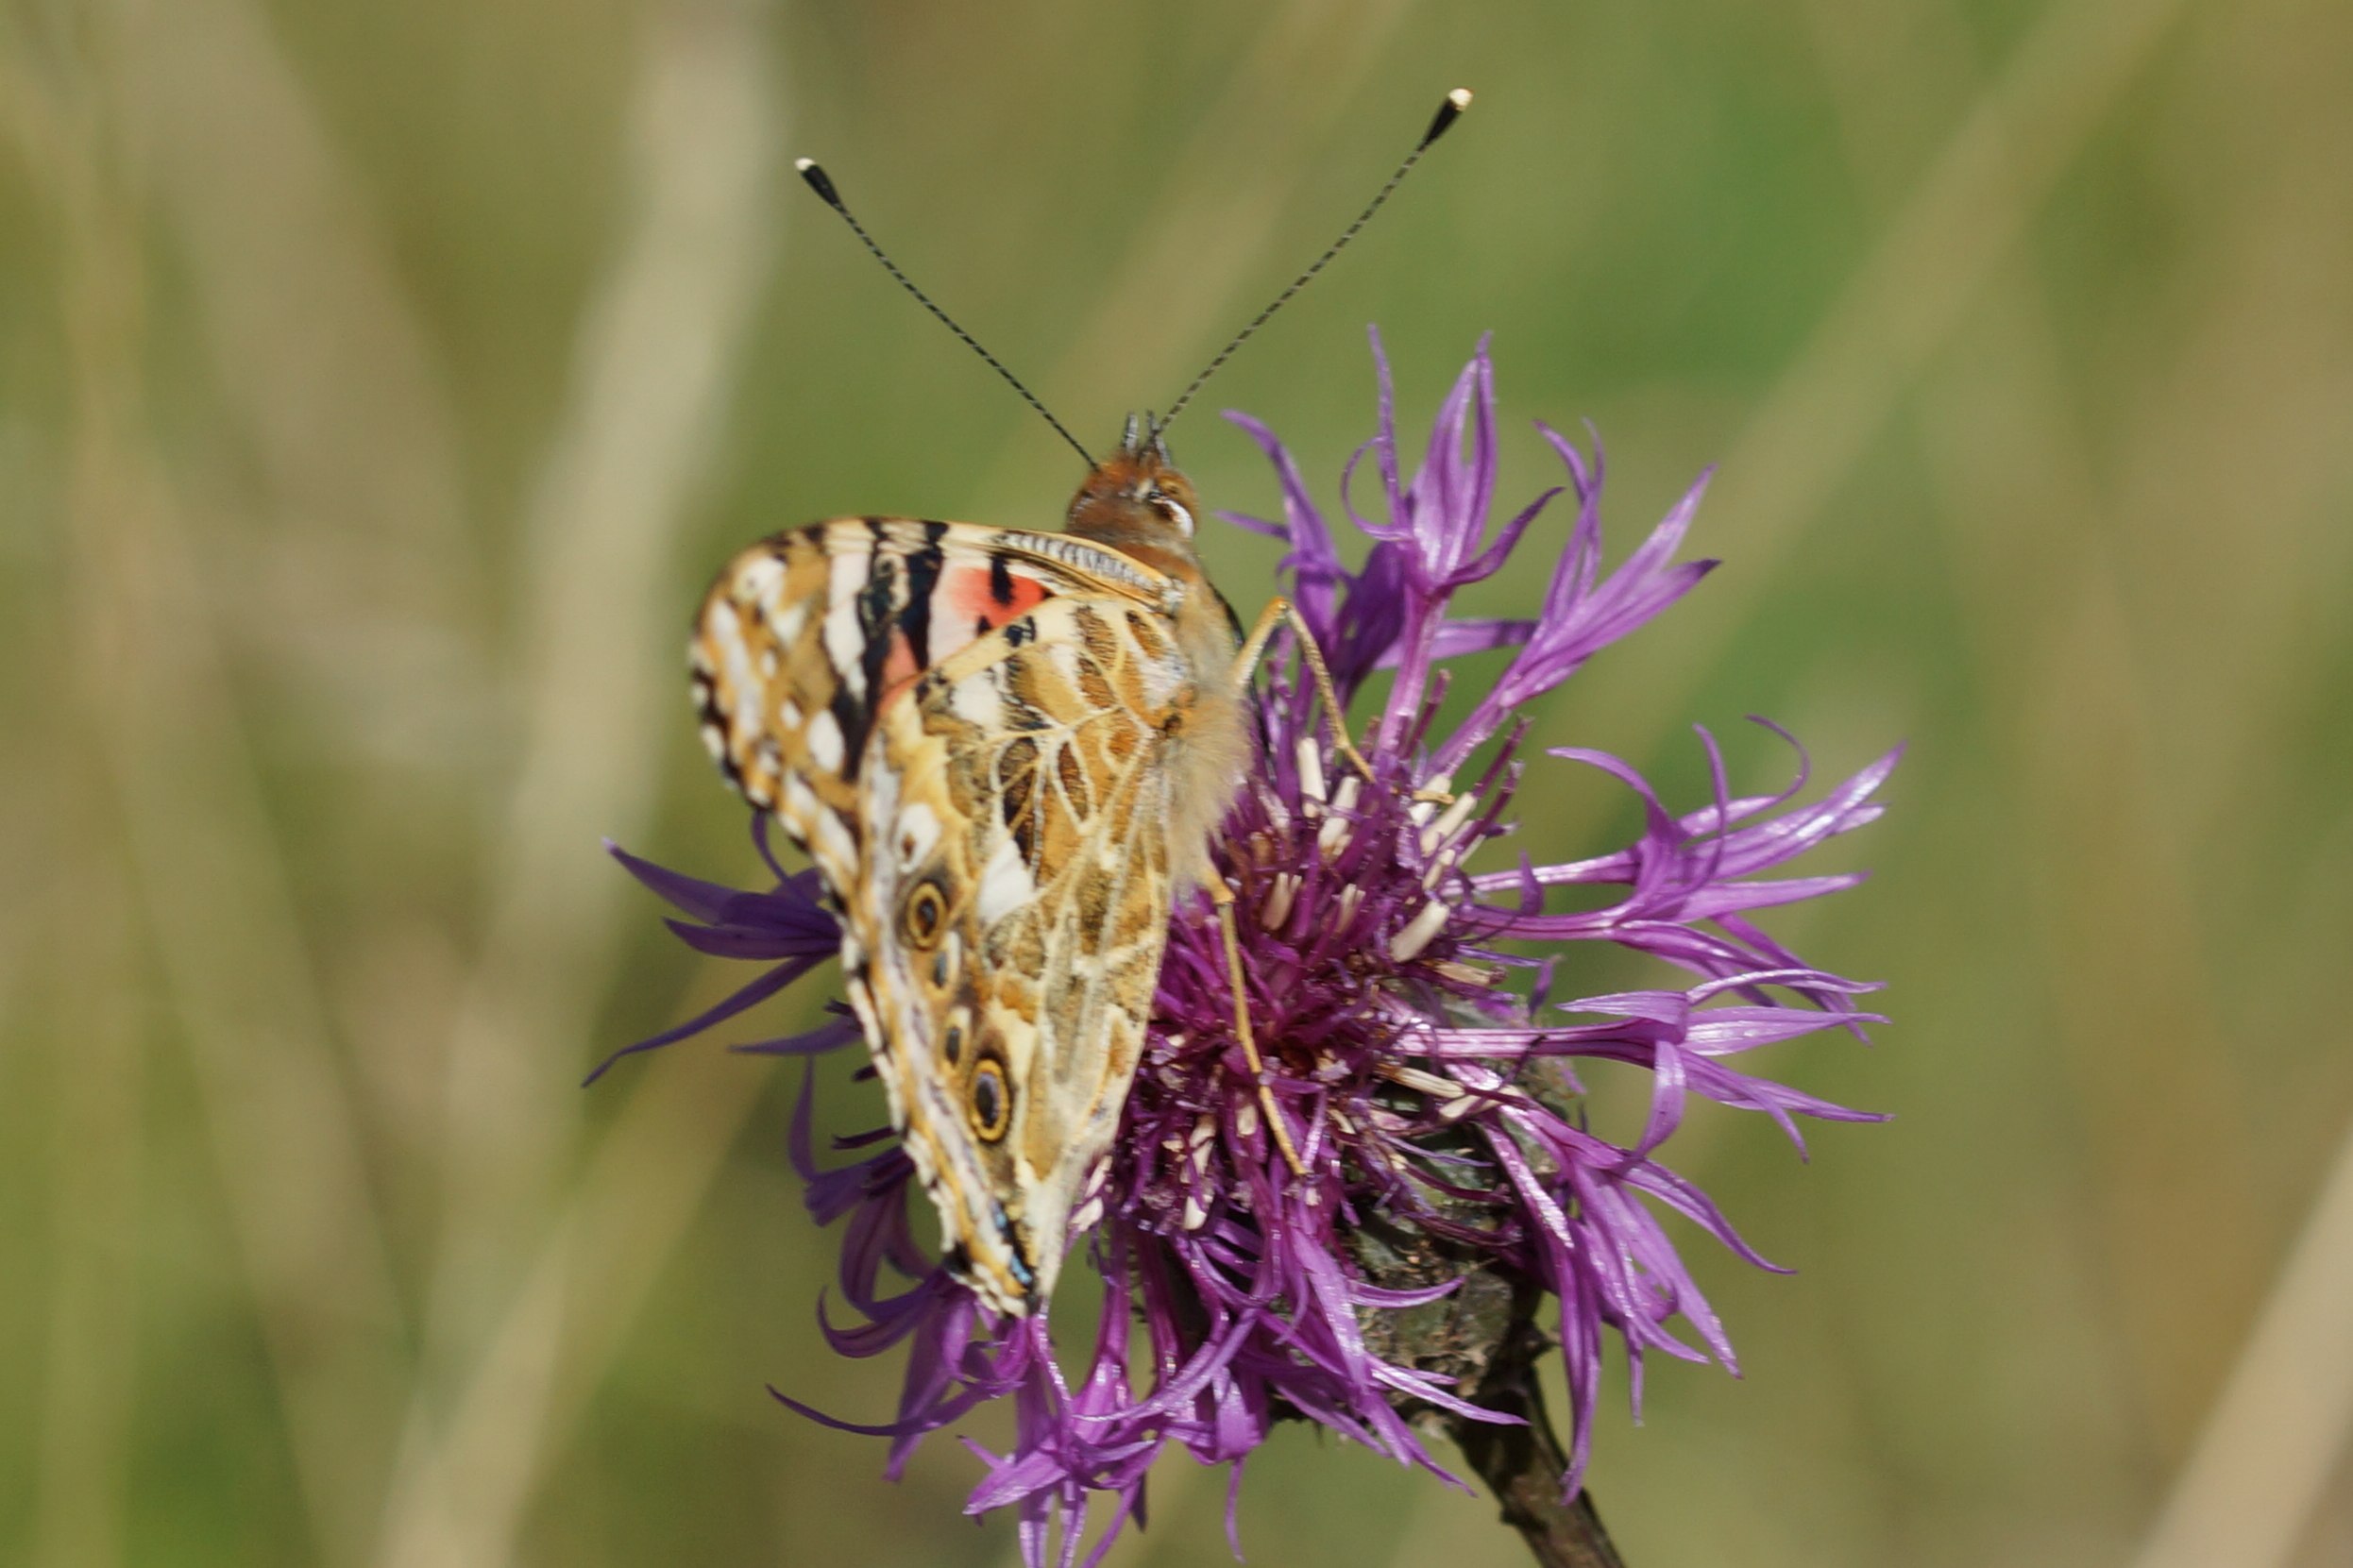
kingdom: Animalia
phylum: Arthropoda
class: Insecta
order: Lepidoptera
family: Nymphalidae
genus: Vanessa
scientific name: Vanessa cardui
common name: Tidselsommerfugl
